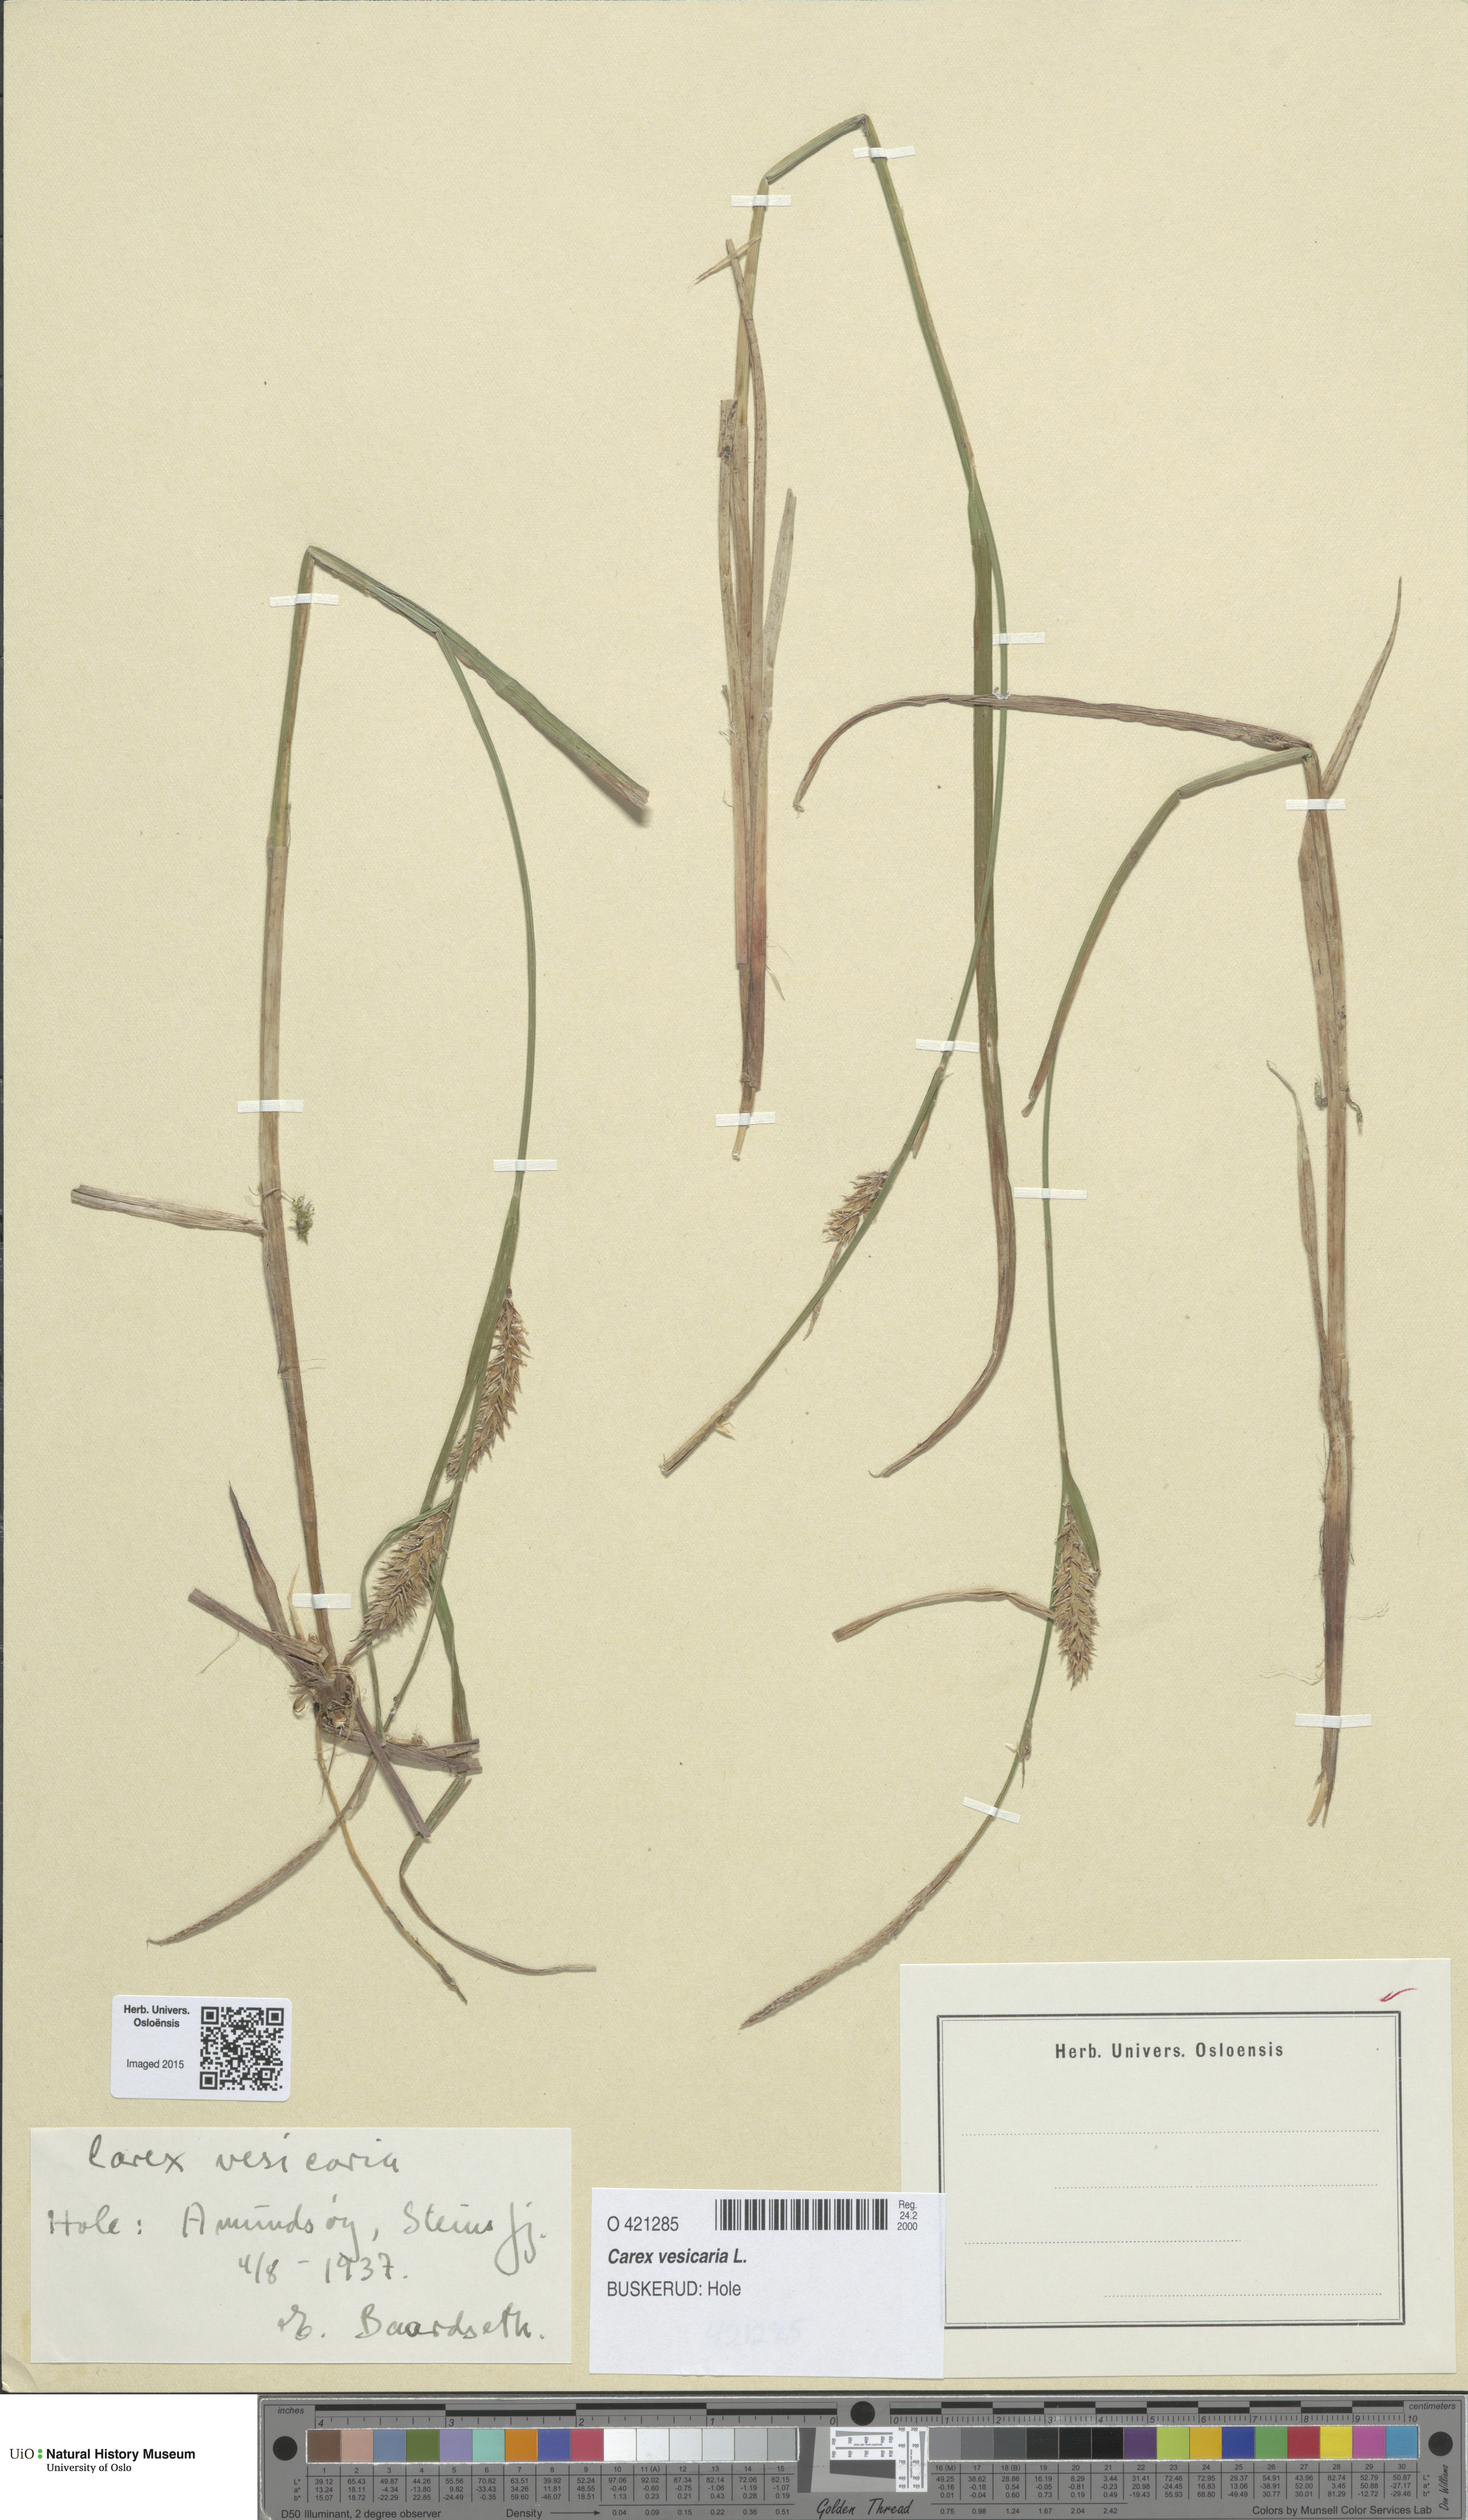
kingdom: Plantae
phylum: Tracheophyta
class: Liliopsida
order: Poales
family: Cyperaceae
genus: Carex
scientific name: Carex vesicaria
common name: Bladder-sedge
